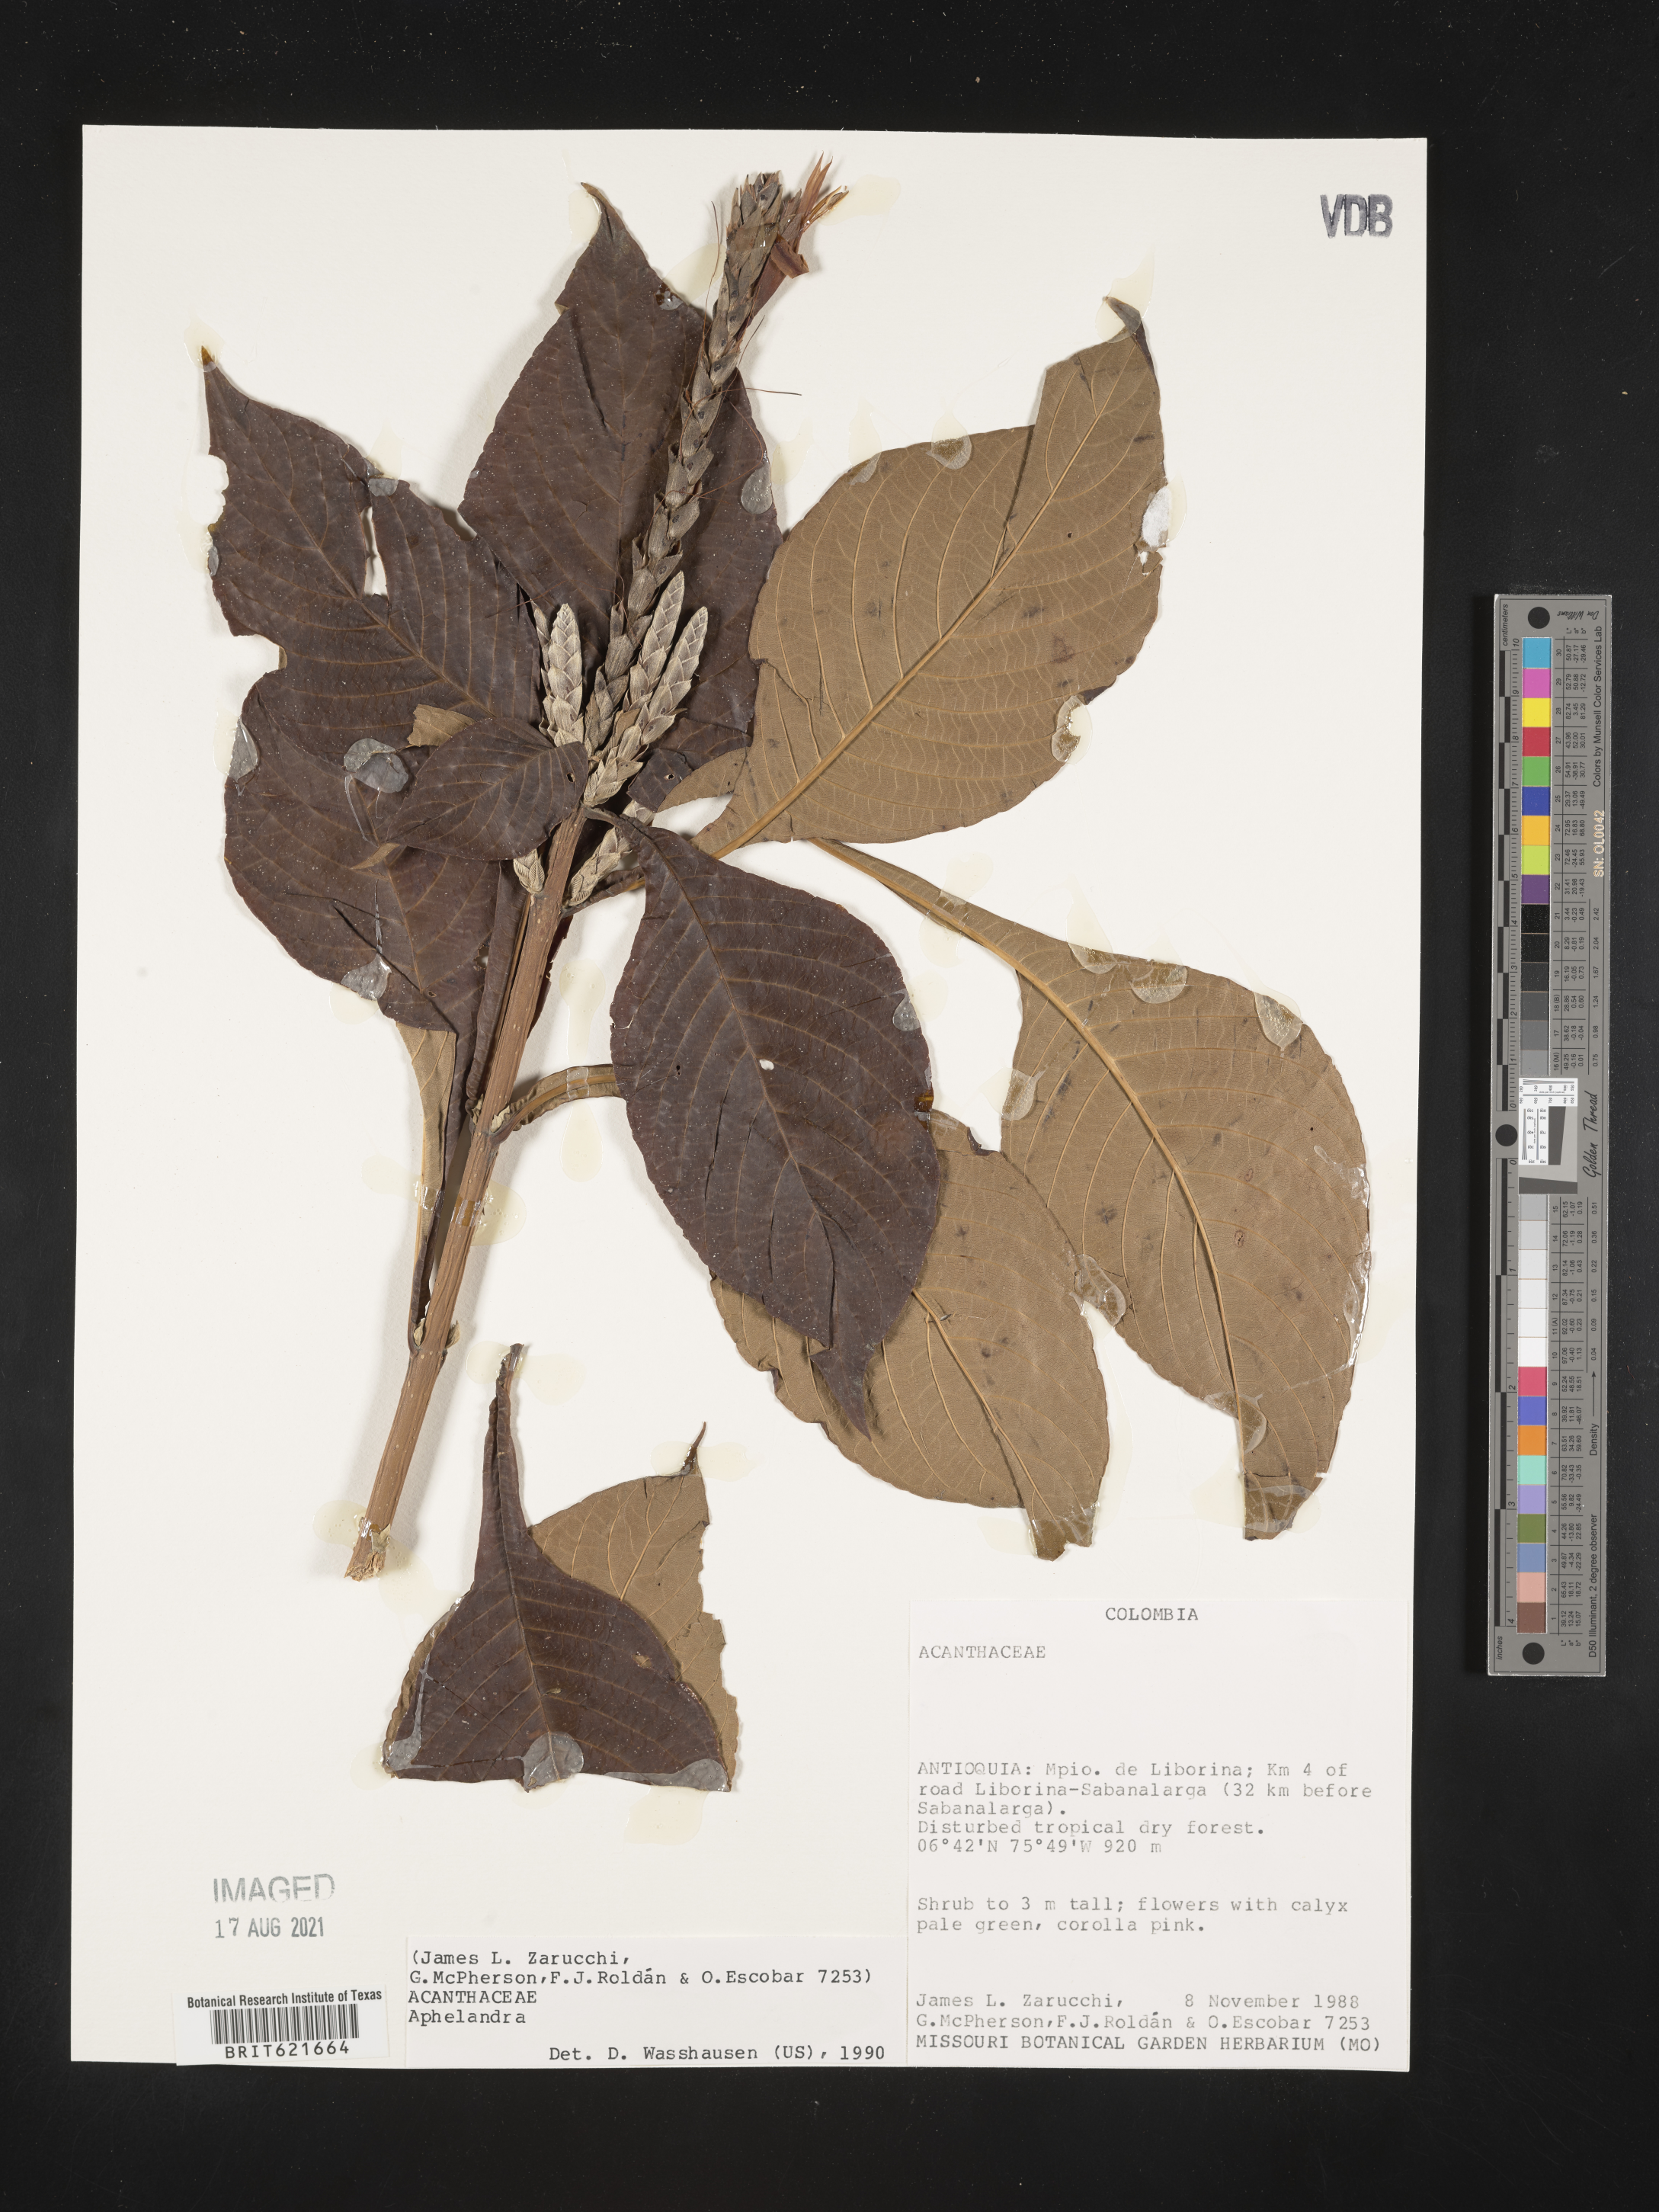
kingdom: Plantae
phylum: Tracheophyta
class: Magnoliopsida
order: Lamiales
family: Acanthaceae
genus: Aphelandra
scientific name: Aphelandra
